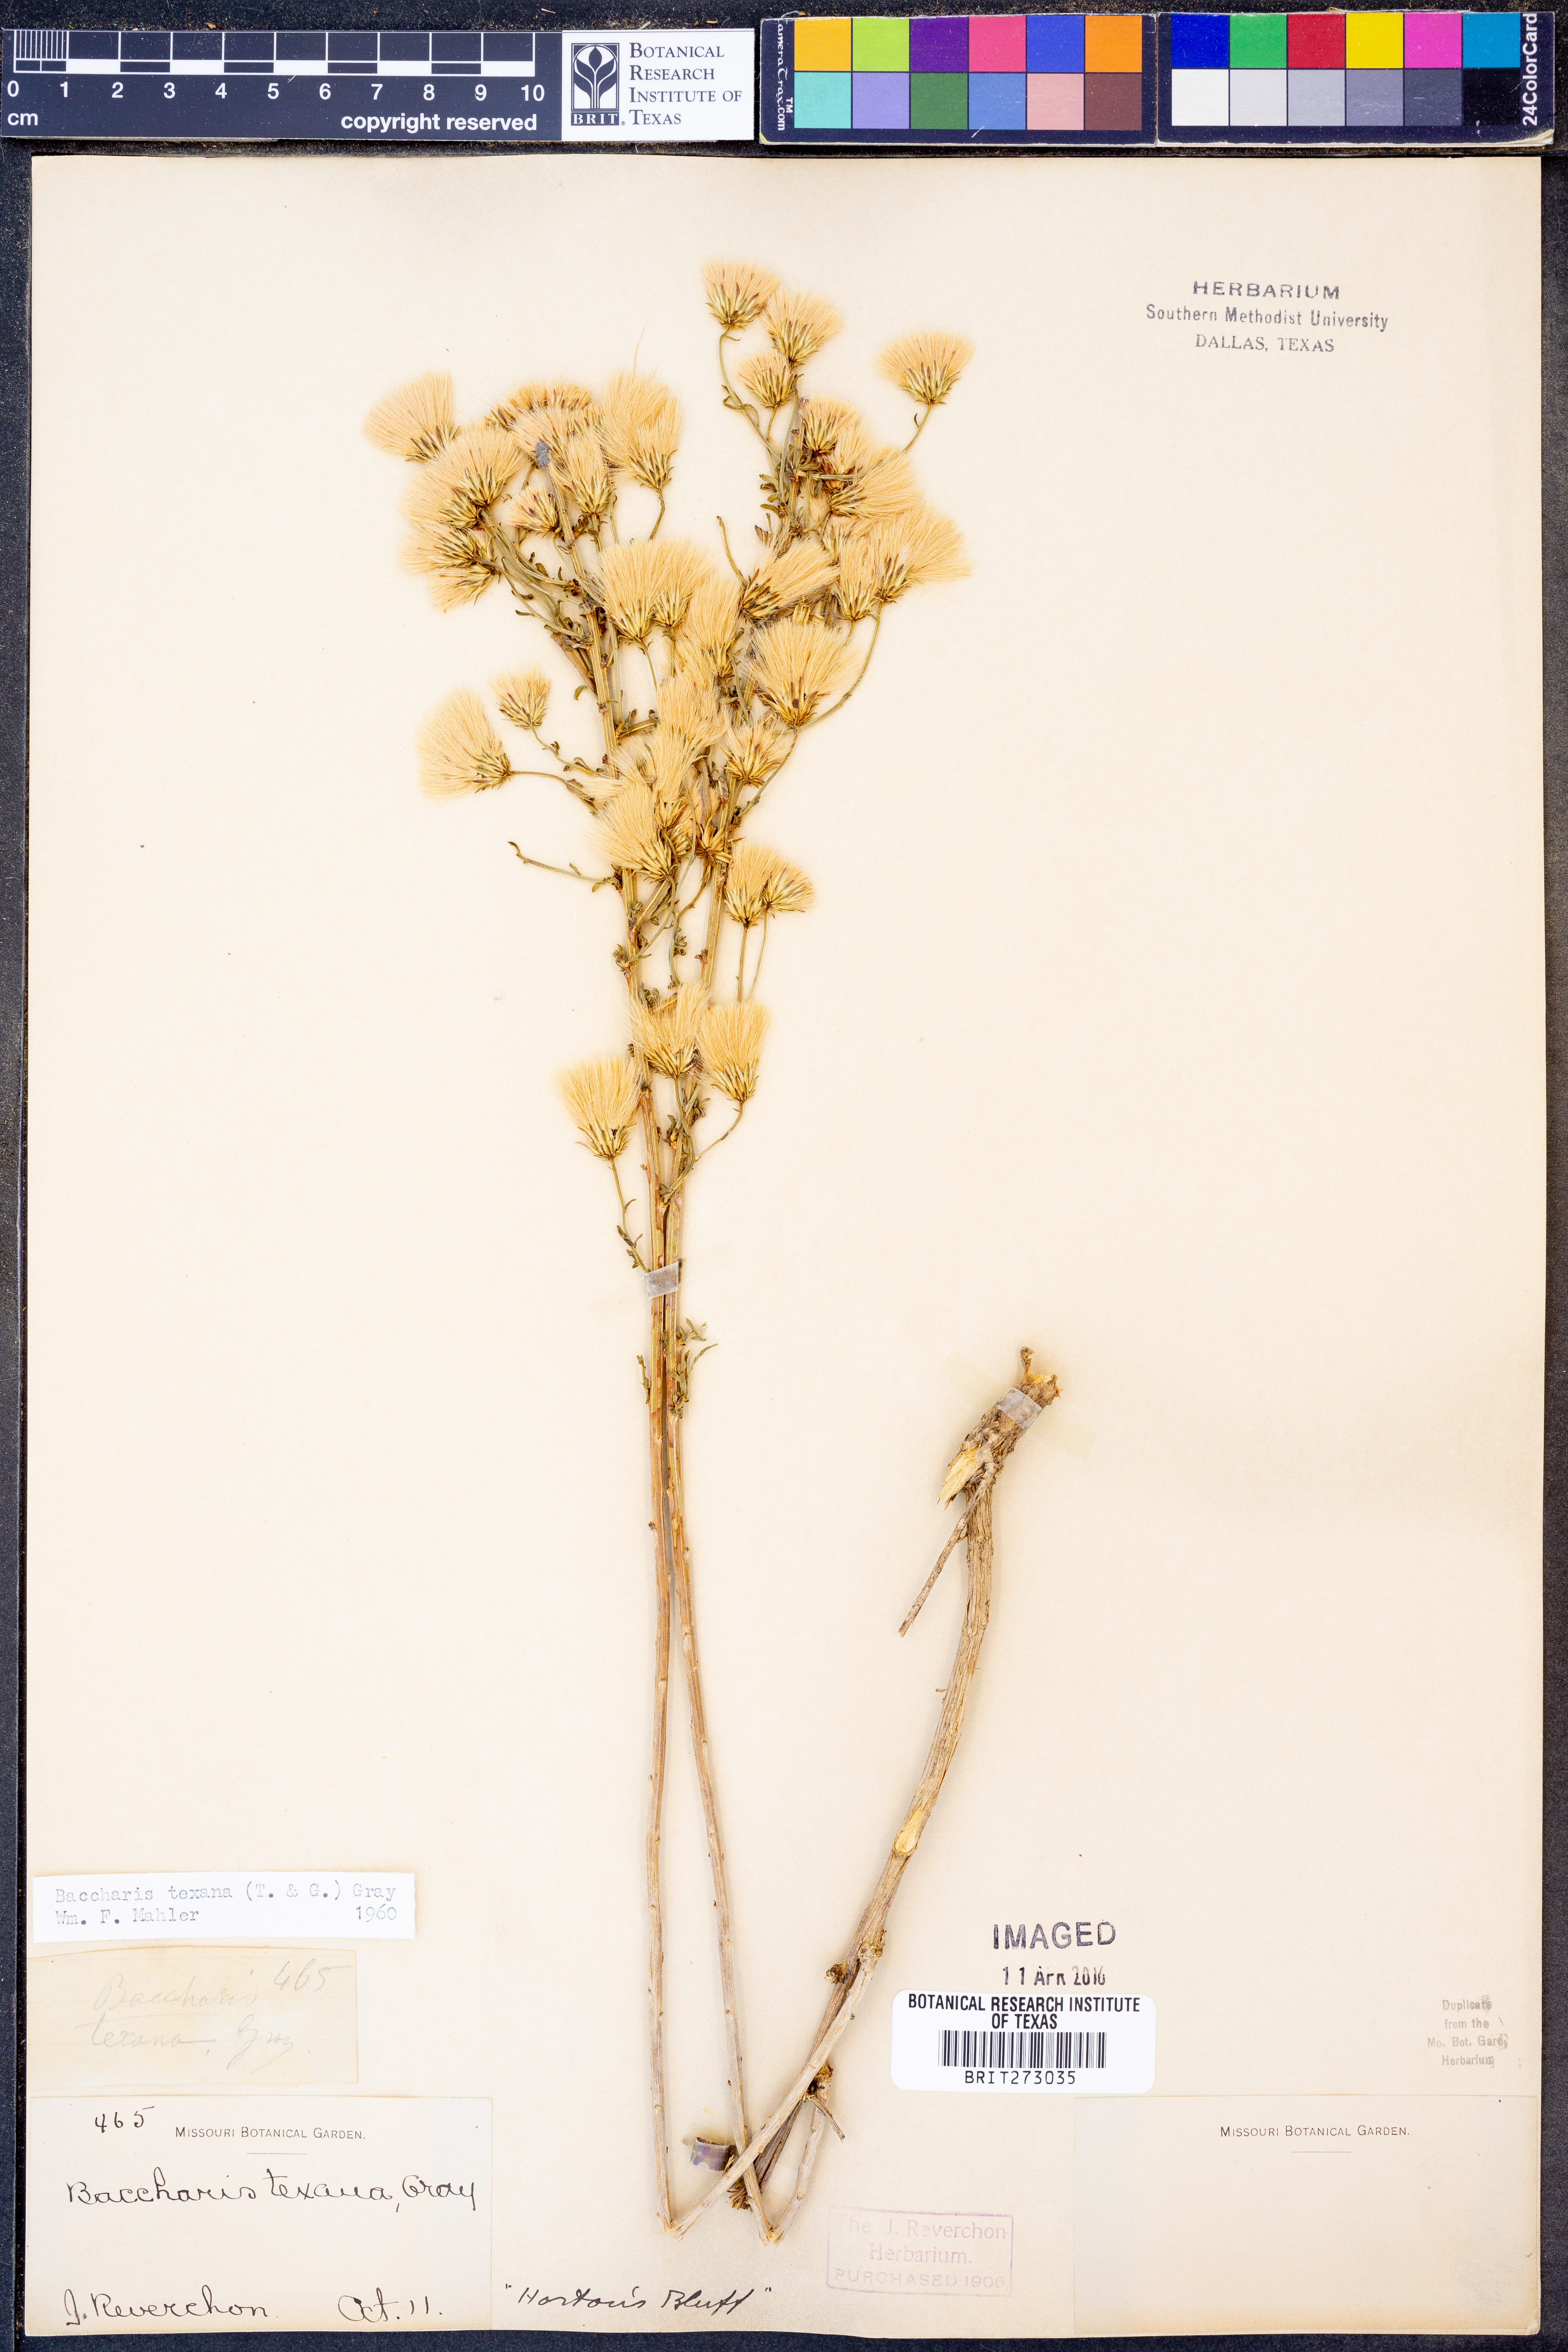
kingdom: Plantae
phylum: Tracheophyta
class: Magnoliopsida
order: Asterales
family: Asteraceae
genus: Baccharis
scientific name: Baccharis texana
